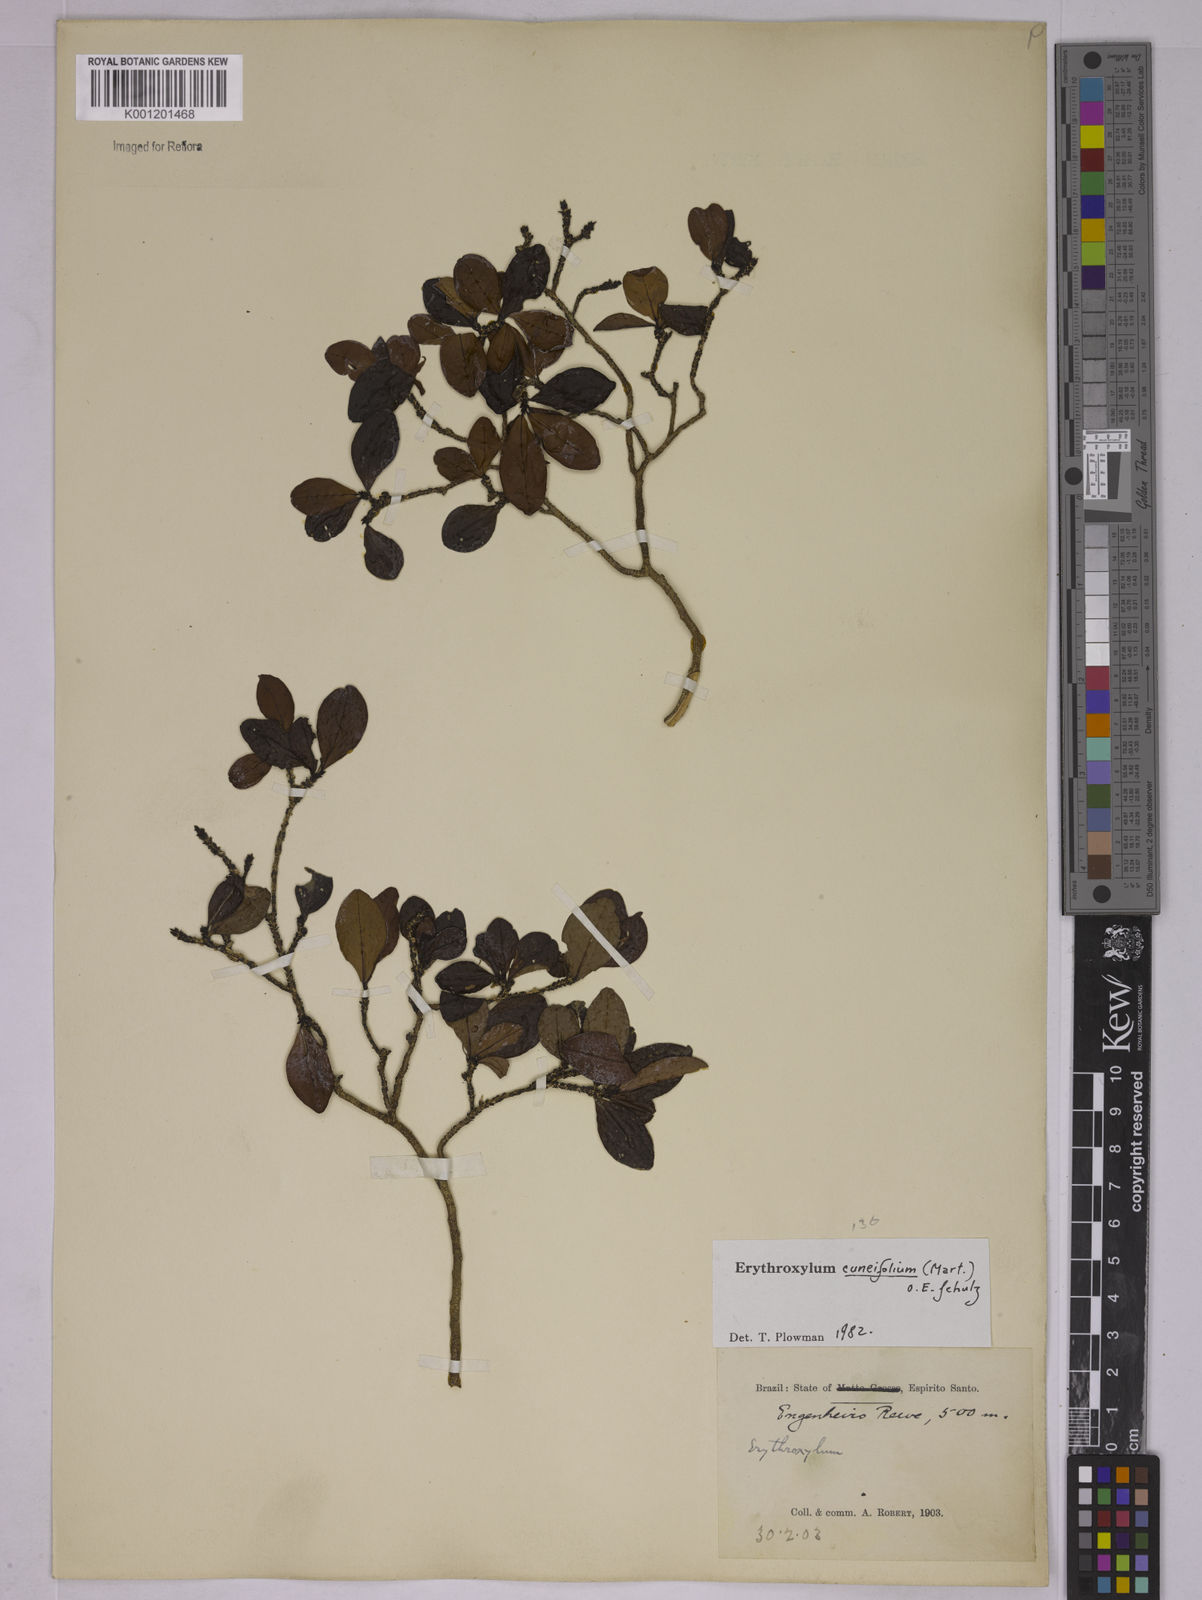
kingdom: Plantae
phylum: Tracheophyta
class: Magnoliopsida
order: Malpighiales
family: Erythroxylaceae
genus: Erythroxylum
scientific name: Erythroxylum cuneifolium
